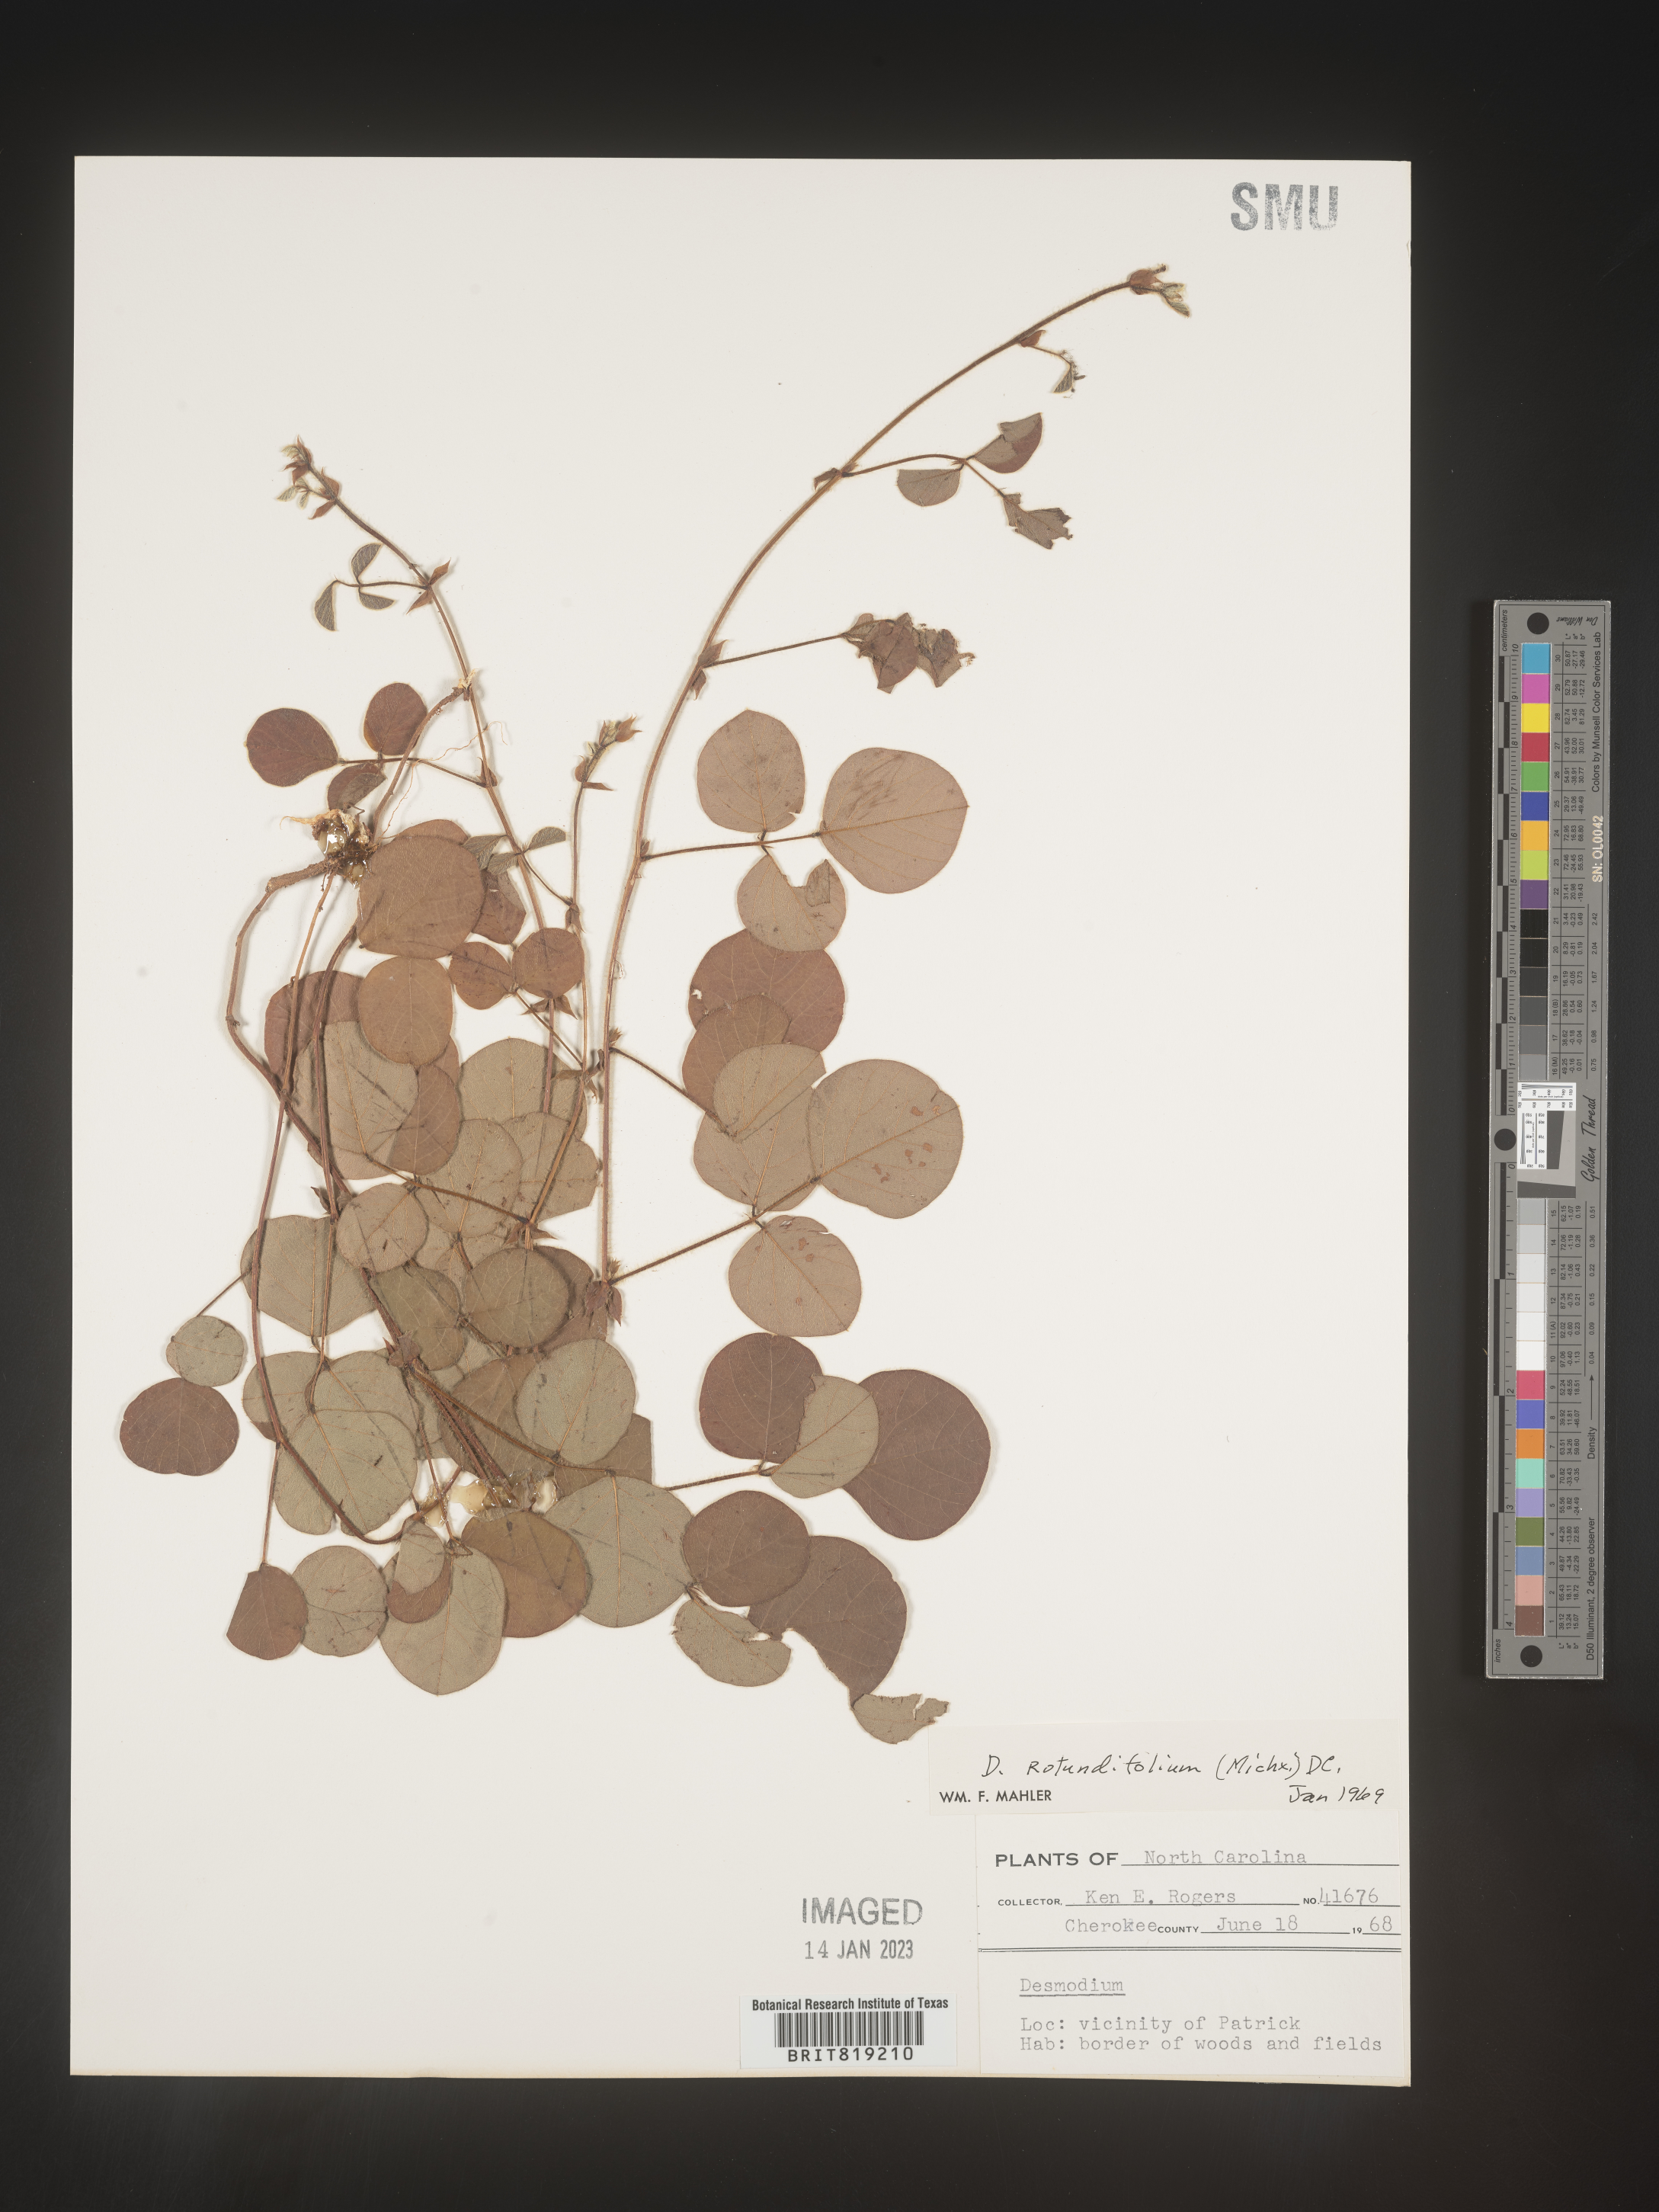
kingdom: Plantae
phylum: Tracheophyta
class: Magnoliopsida
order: Fabales
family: Fabaceae
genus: Desmodium
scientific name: Desmodium rotundifolium
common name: Dollarleaf
